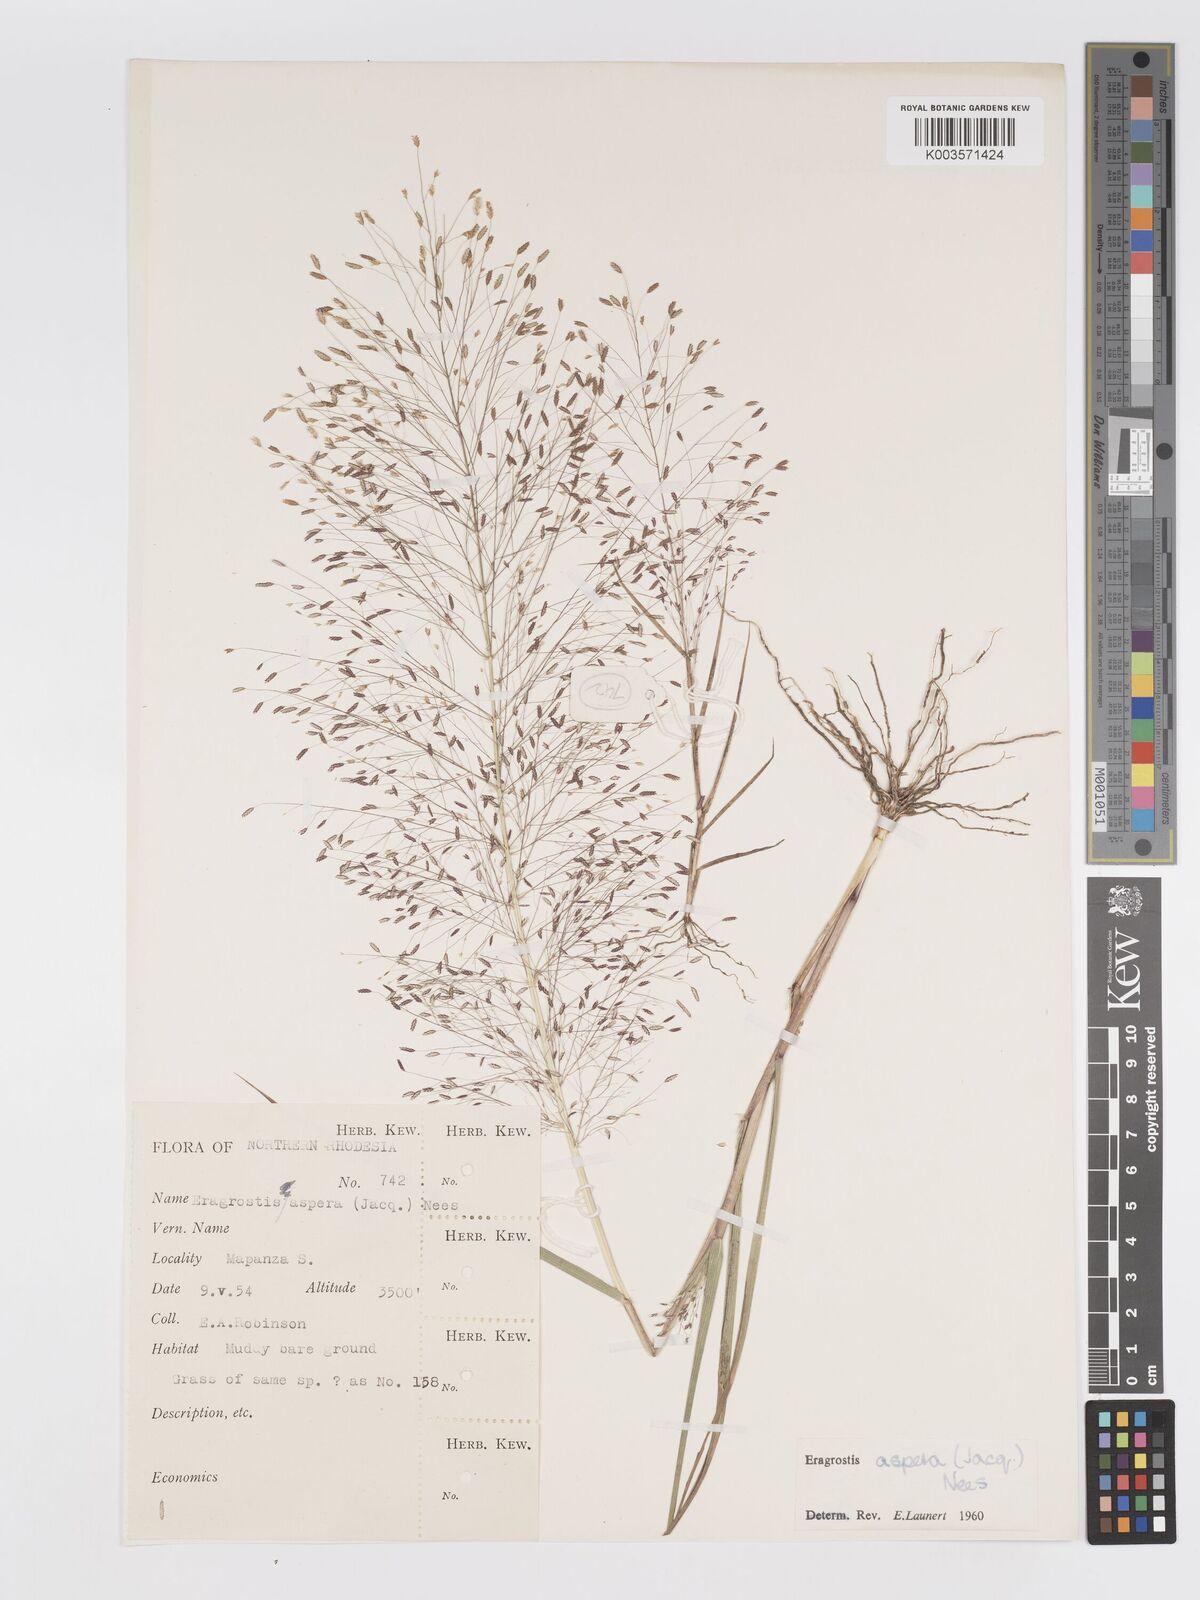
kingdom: Plantae
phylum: Tracheophyta
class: Liliopsida
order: Poales
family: Poaceae
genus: Eragrostis
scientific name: Eragrostis aspera
